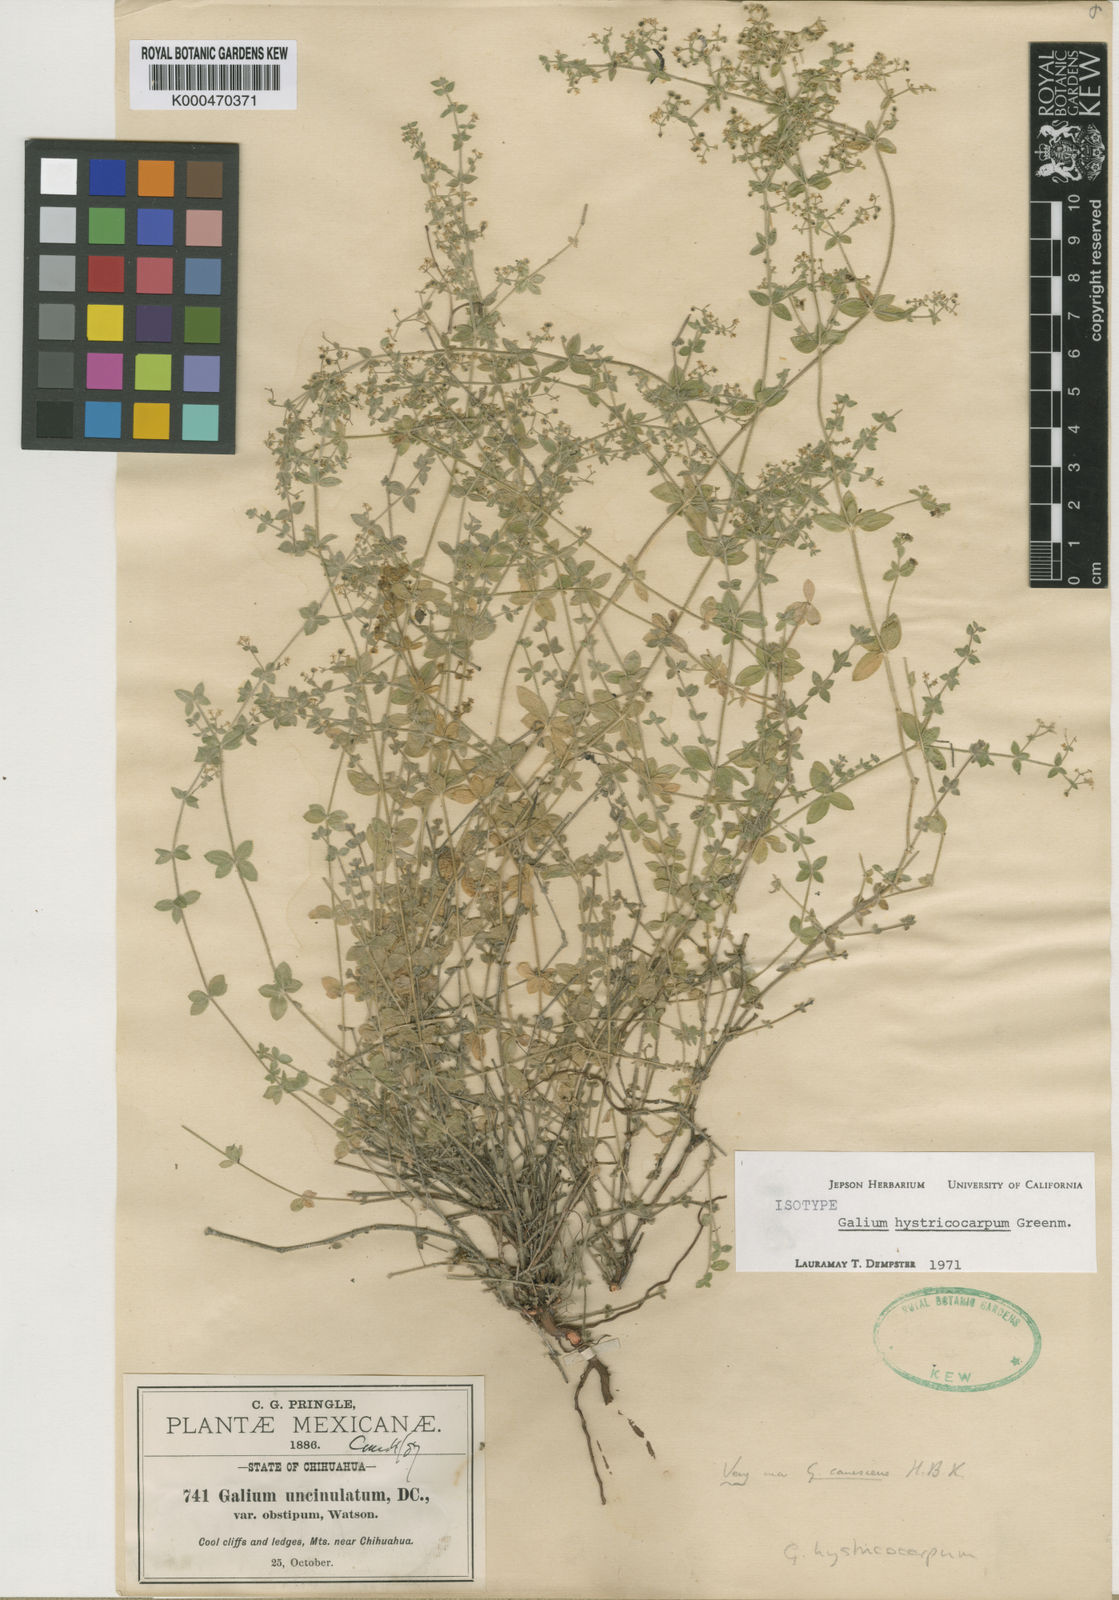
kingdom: Plantae
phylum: Tracheophyta
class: Magnoliopsida
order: Gentianales
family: Rubiaceae
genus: Galium
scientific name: Galium hystricocarpum
